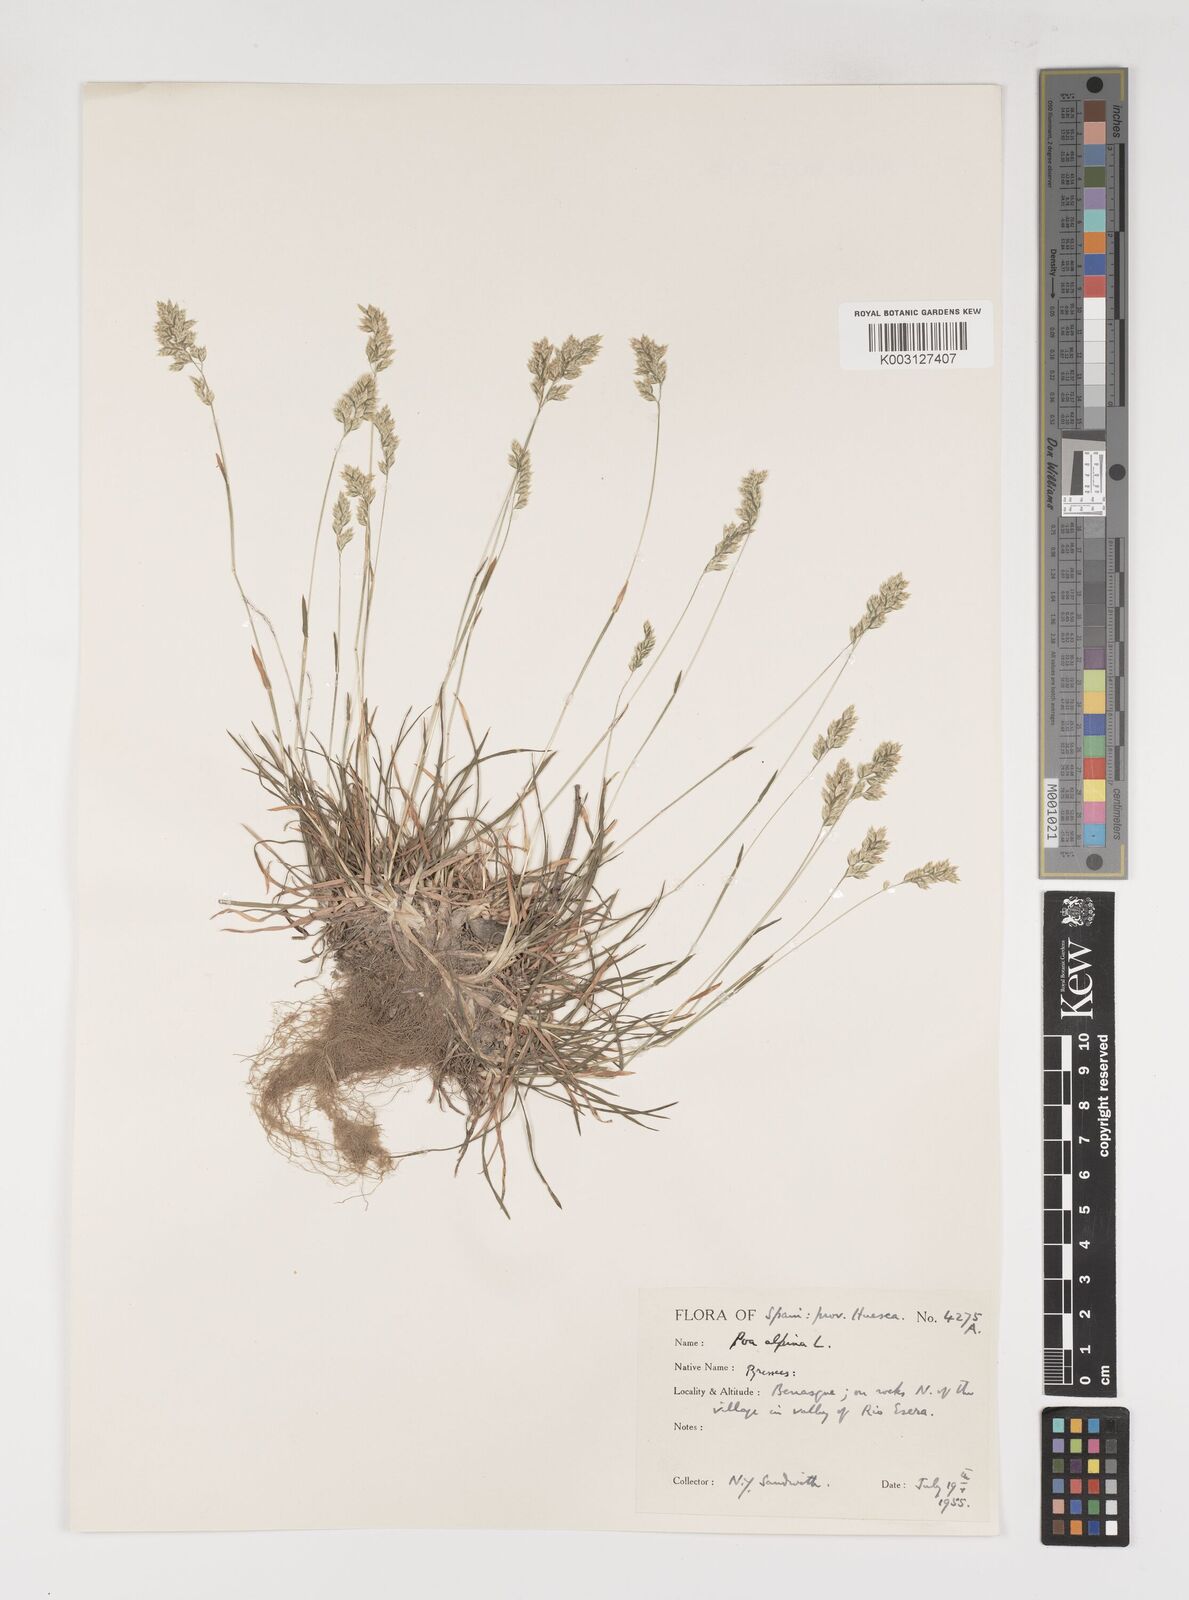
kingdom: Plantae
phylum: Tracheophyta
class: Liliopsida
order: Poales
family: Poaceae
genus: Poa
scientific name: Poa alpina
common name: Alpine bluegrass
